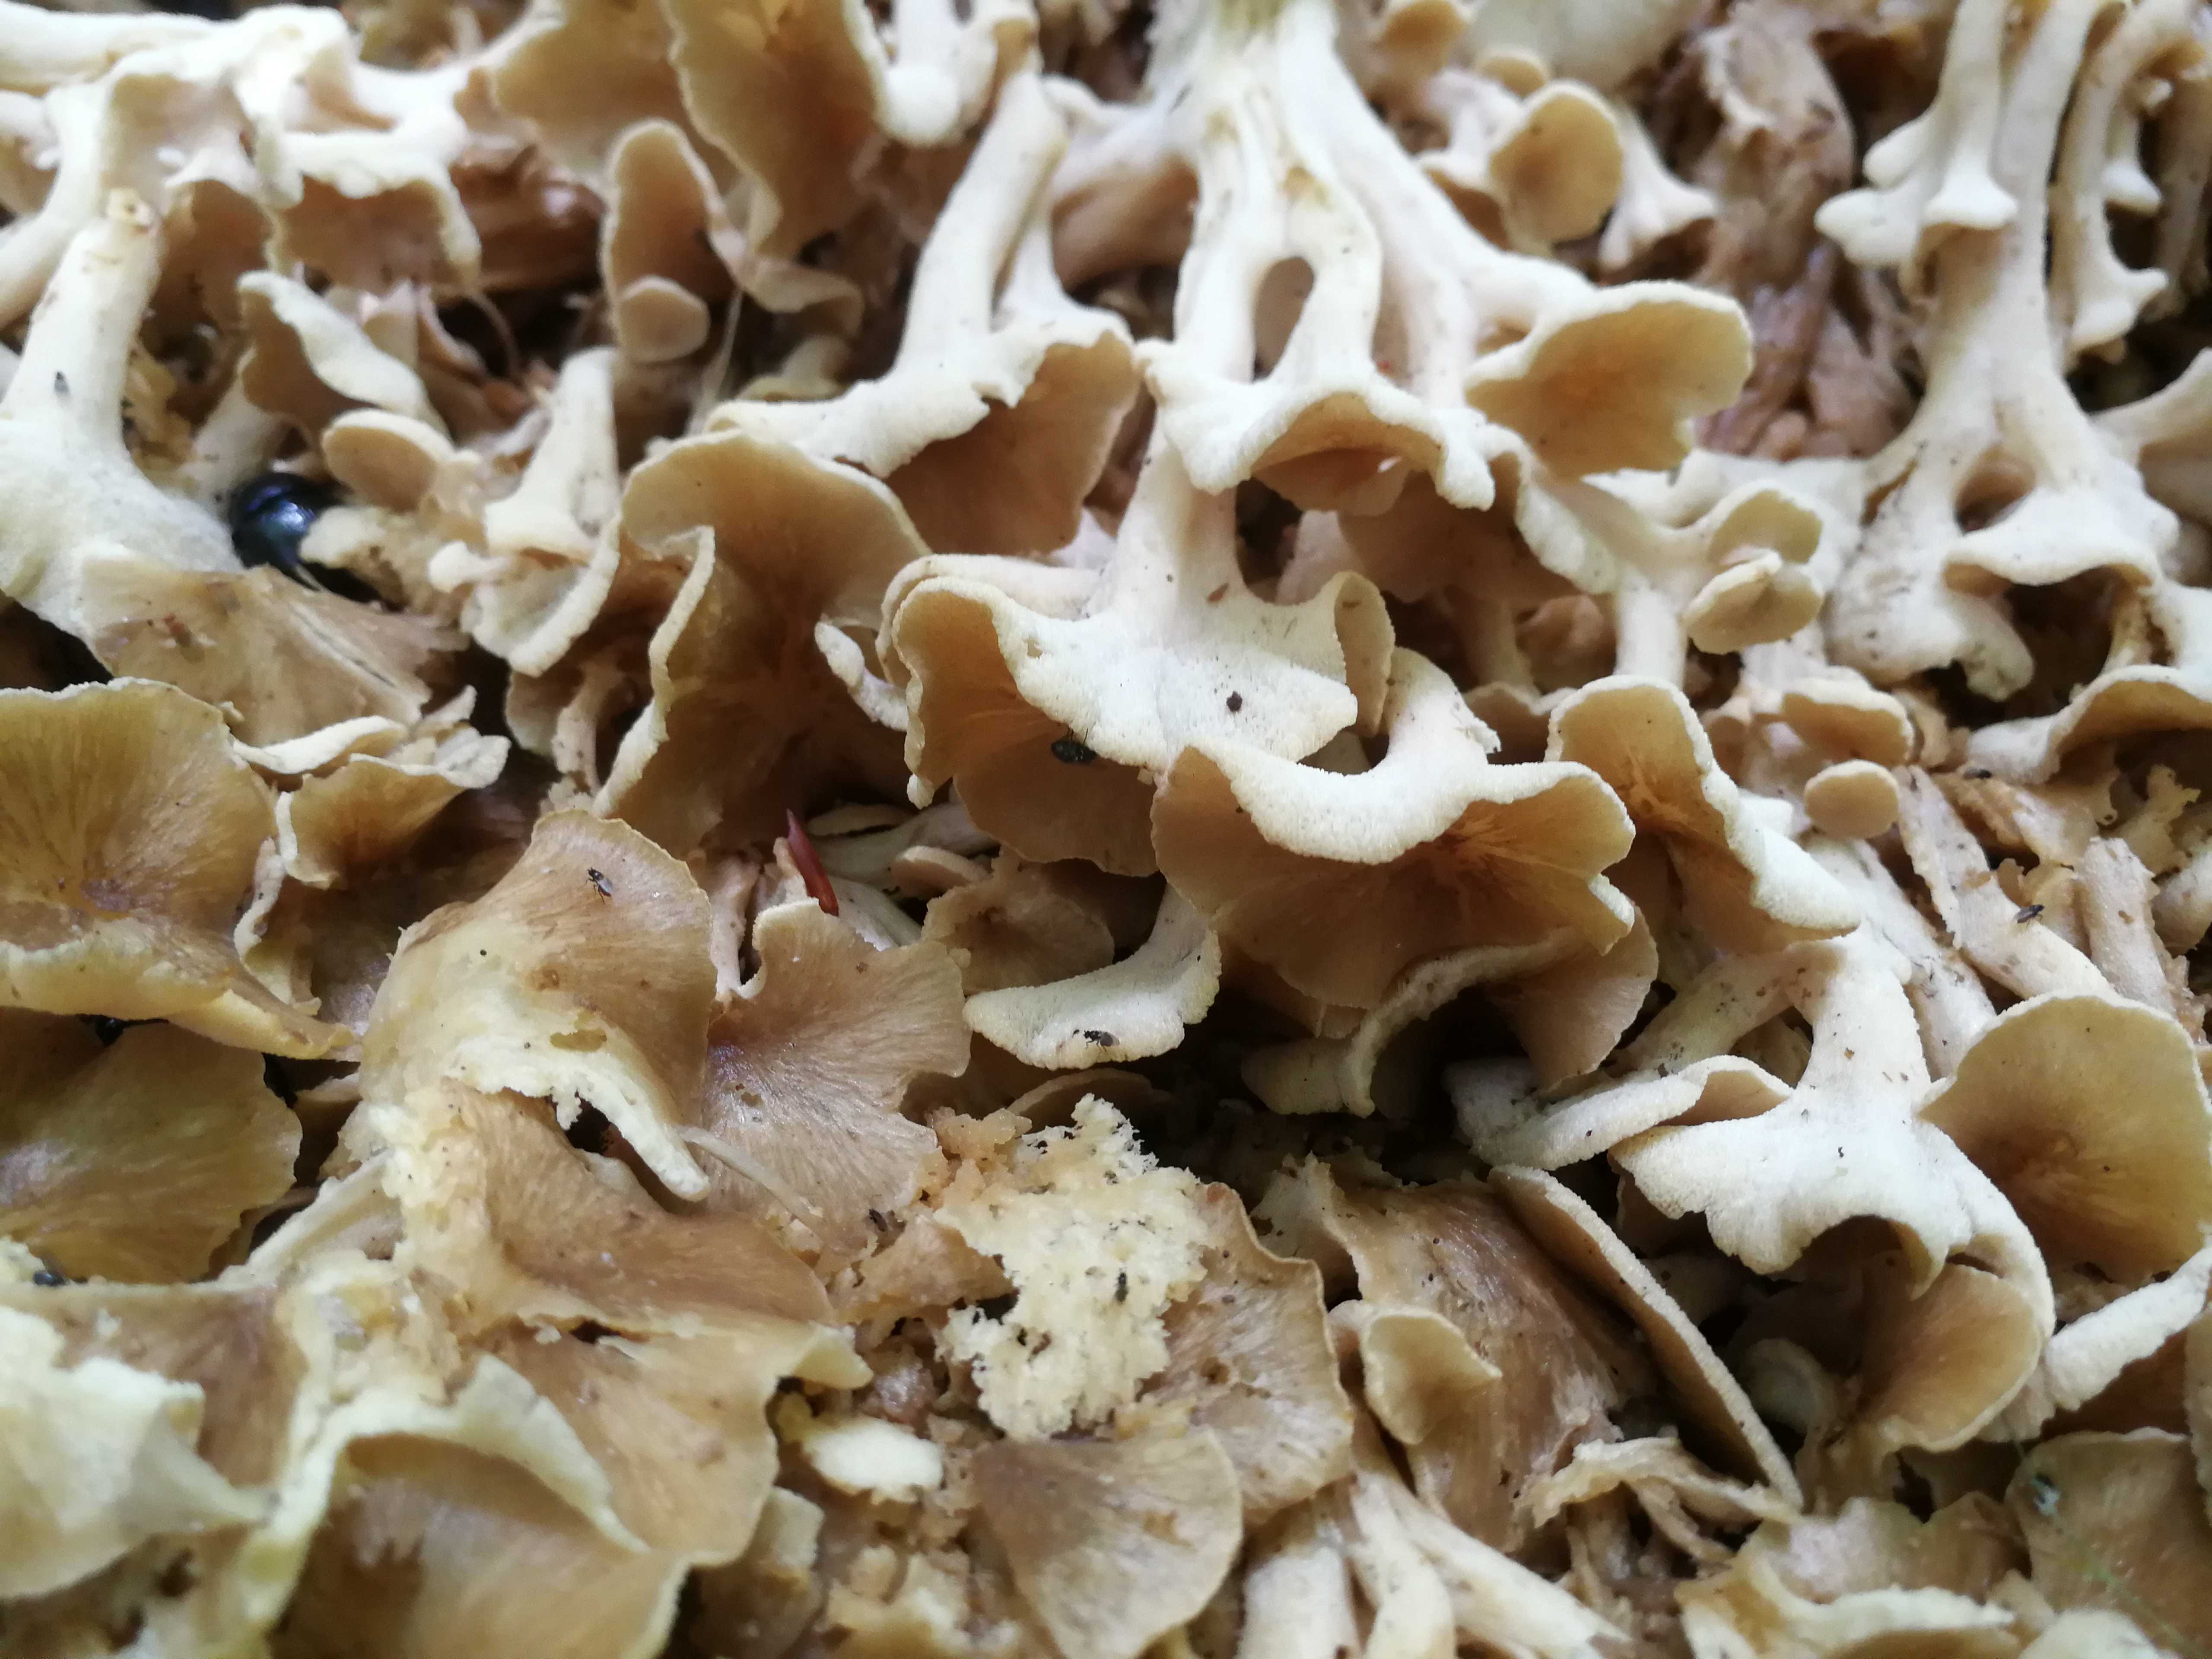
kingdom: Fungi
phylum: Basidiomycota
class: Agaricomycetes
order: Polyporales
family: Polyporaceae
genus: Polyporus
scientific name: Polyporus umbellatus
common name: skærmformet stilkporesvamp
